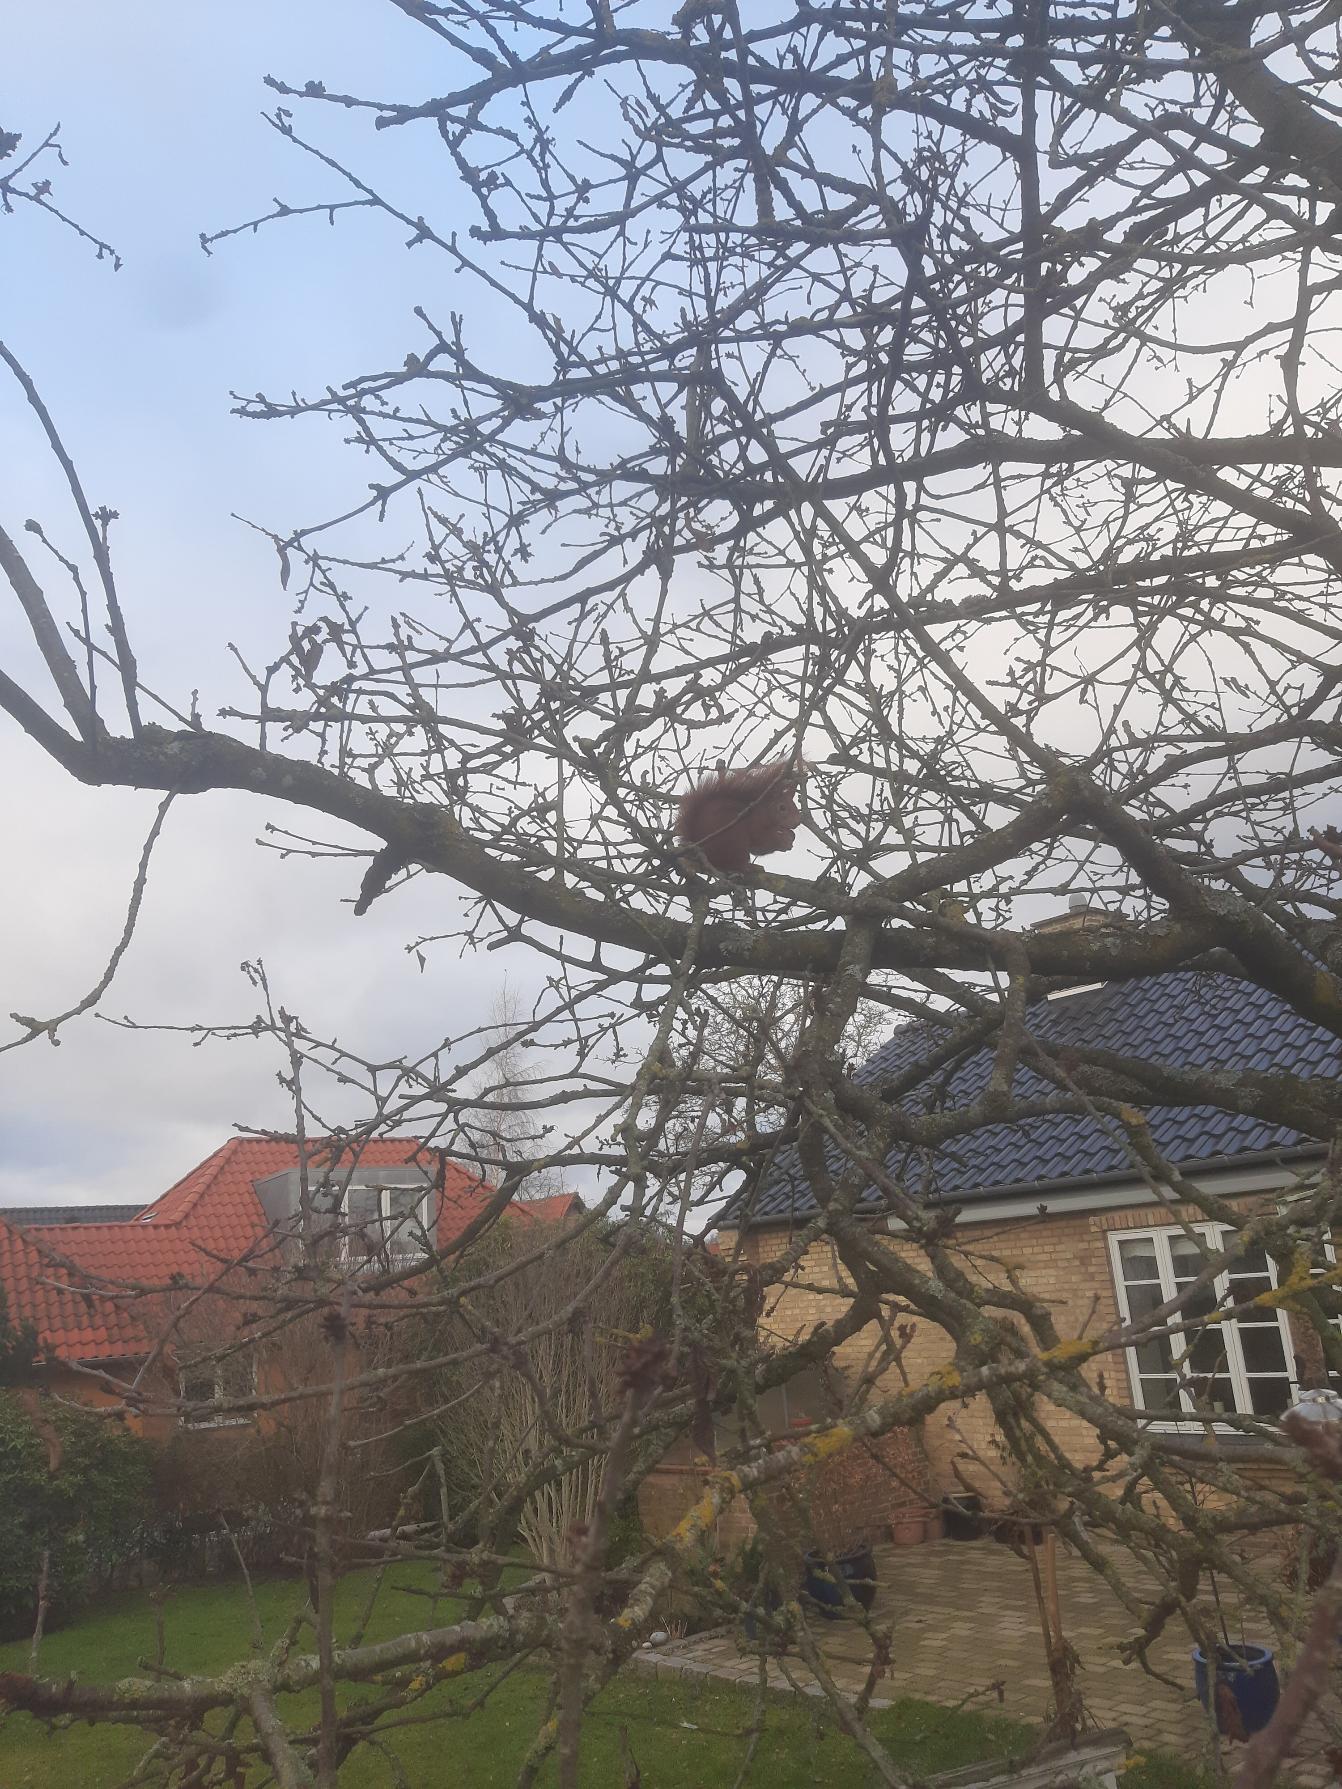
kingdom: Animalia
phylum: Chordata
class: Mammalia
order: Rodentia
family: Sciuridae
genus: Sciurus
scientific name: Sciurus vulgaris
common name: Egern
